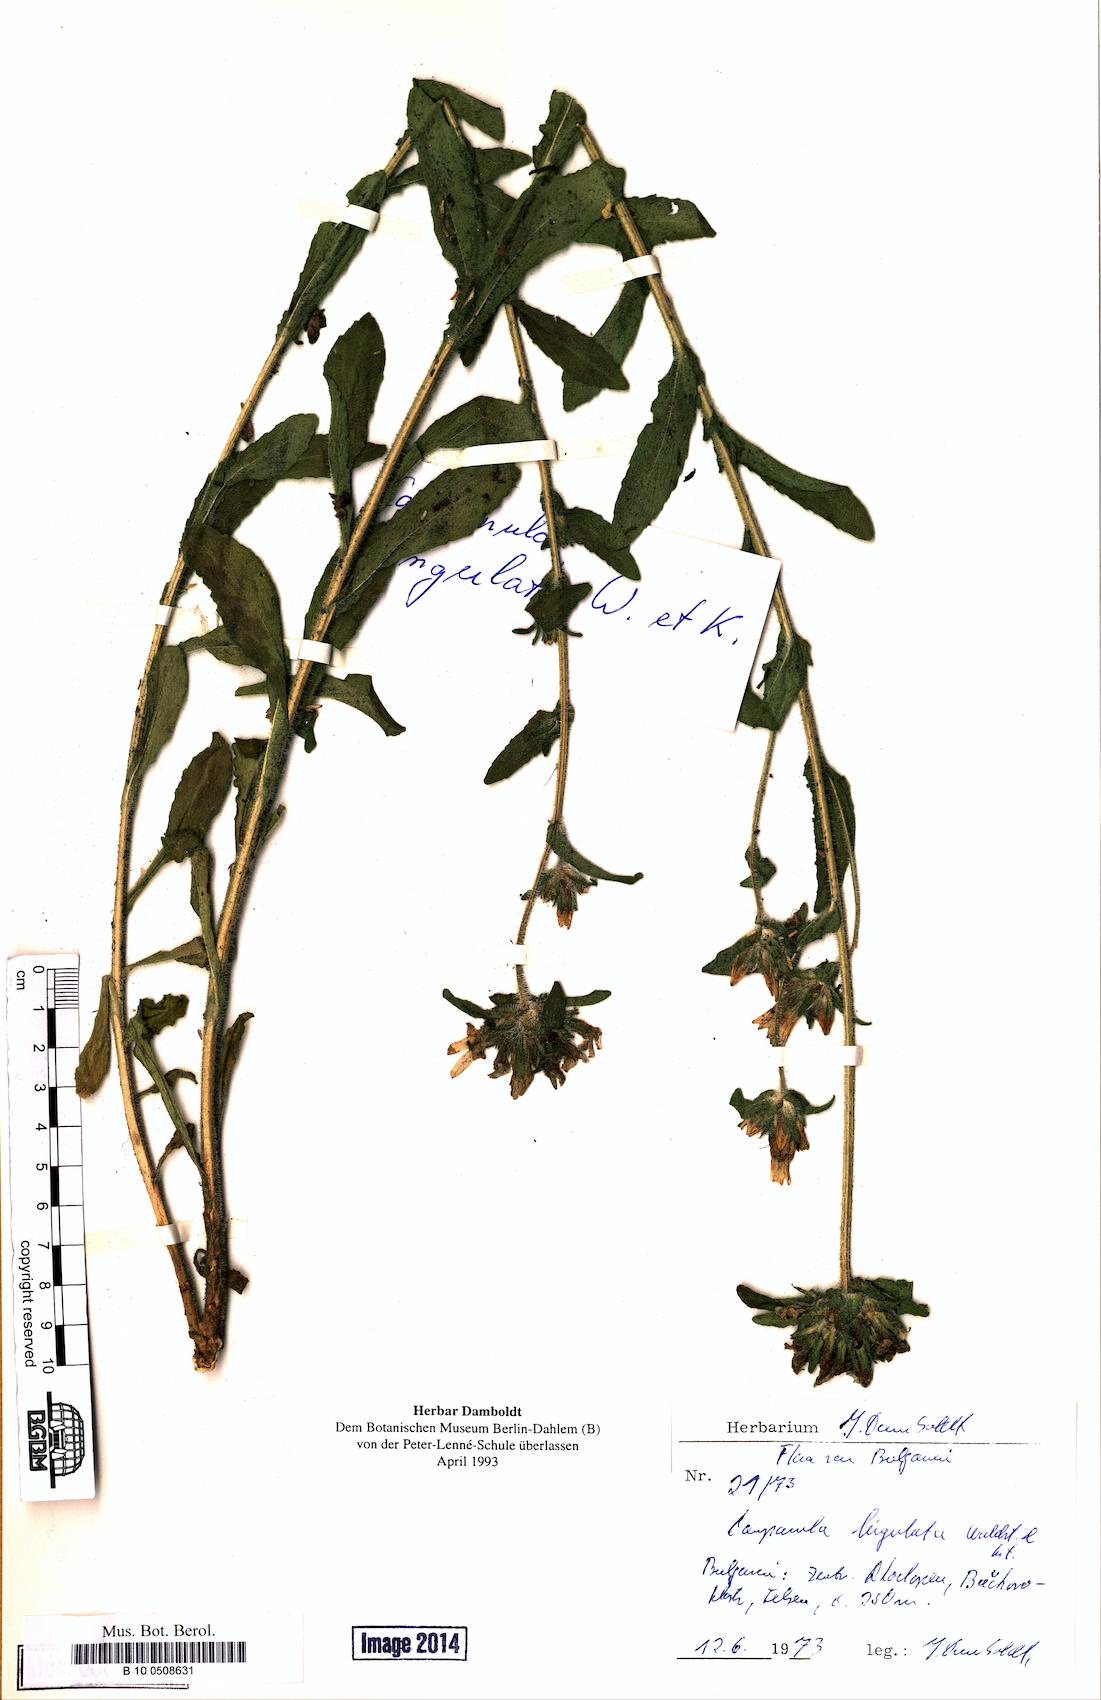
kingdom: Plantae
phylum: Tracheophyta
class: Magnoliopsida
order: Asterales
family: Campanulaceae
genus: Campanula
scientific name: Campanula lingulata
